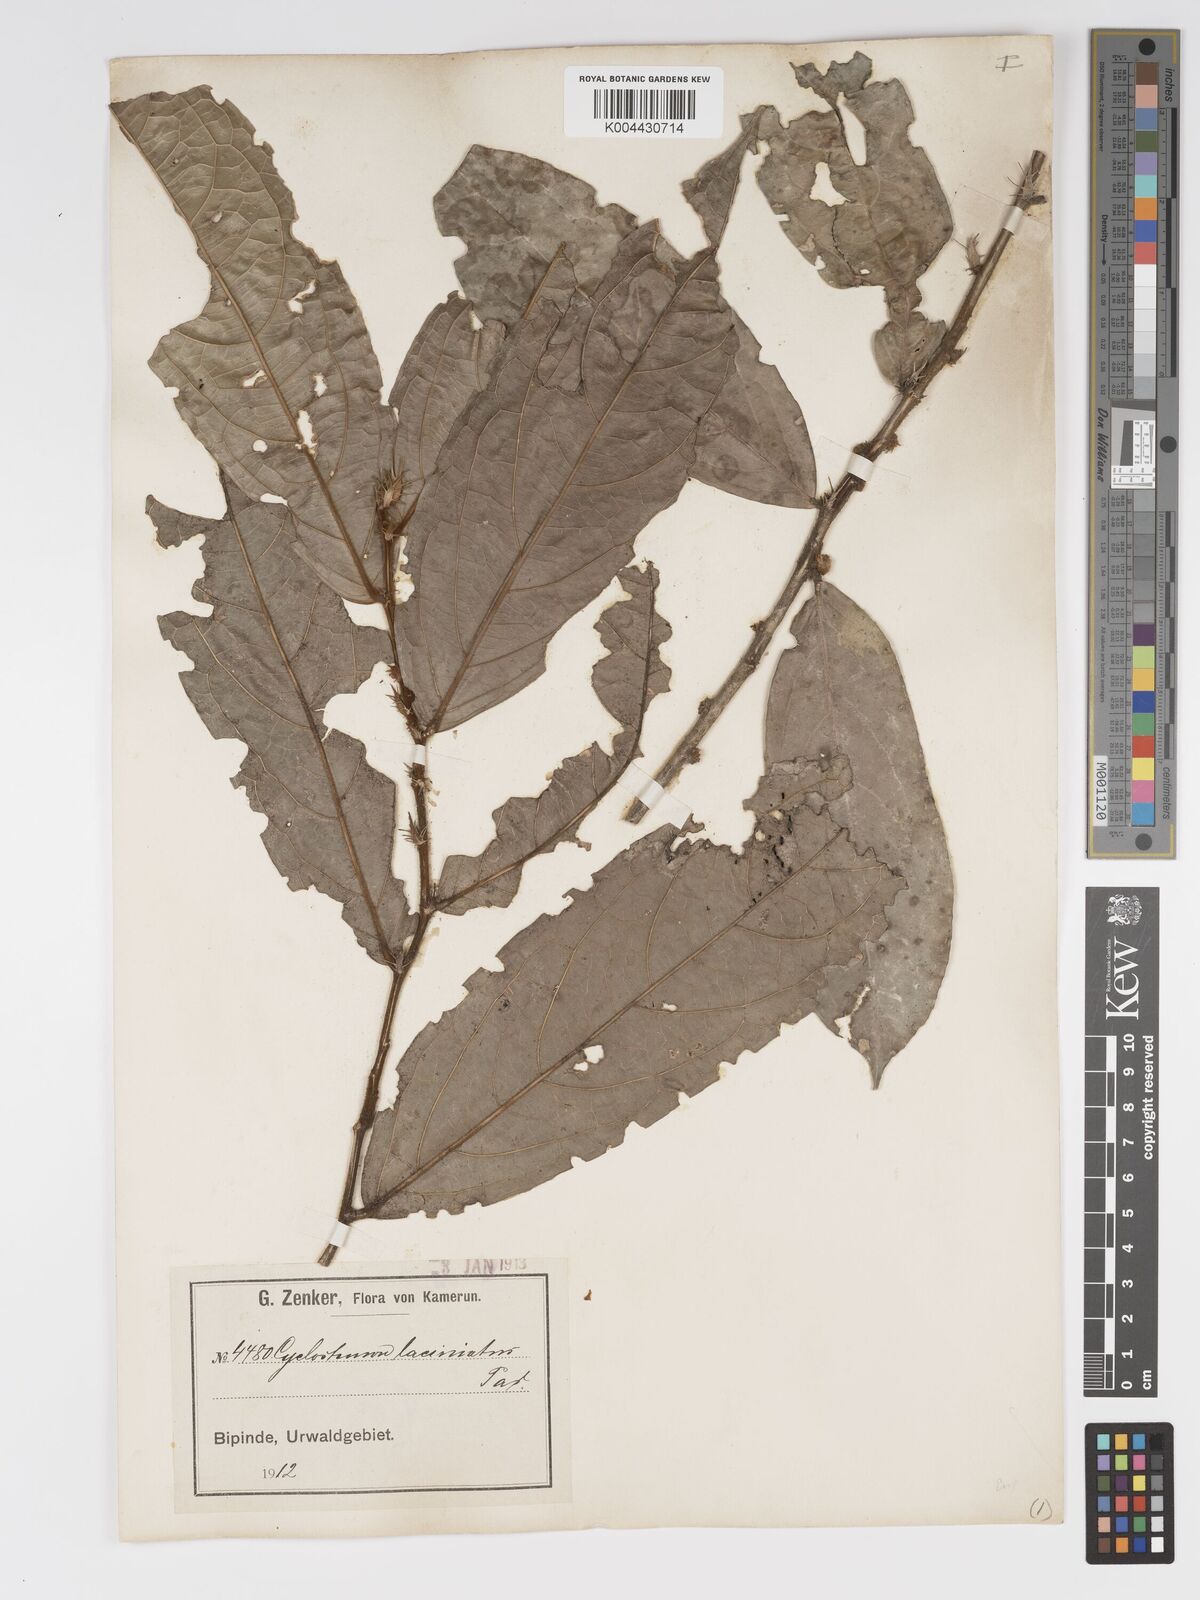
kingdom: Plantae
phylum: Tracheophyta
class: Magnoliopsida
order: Malpighiales
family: Putranjivaceae
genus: Drypetes
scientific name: Drypetes laciniata
